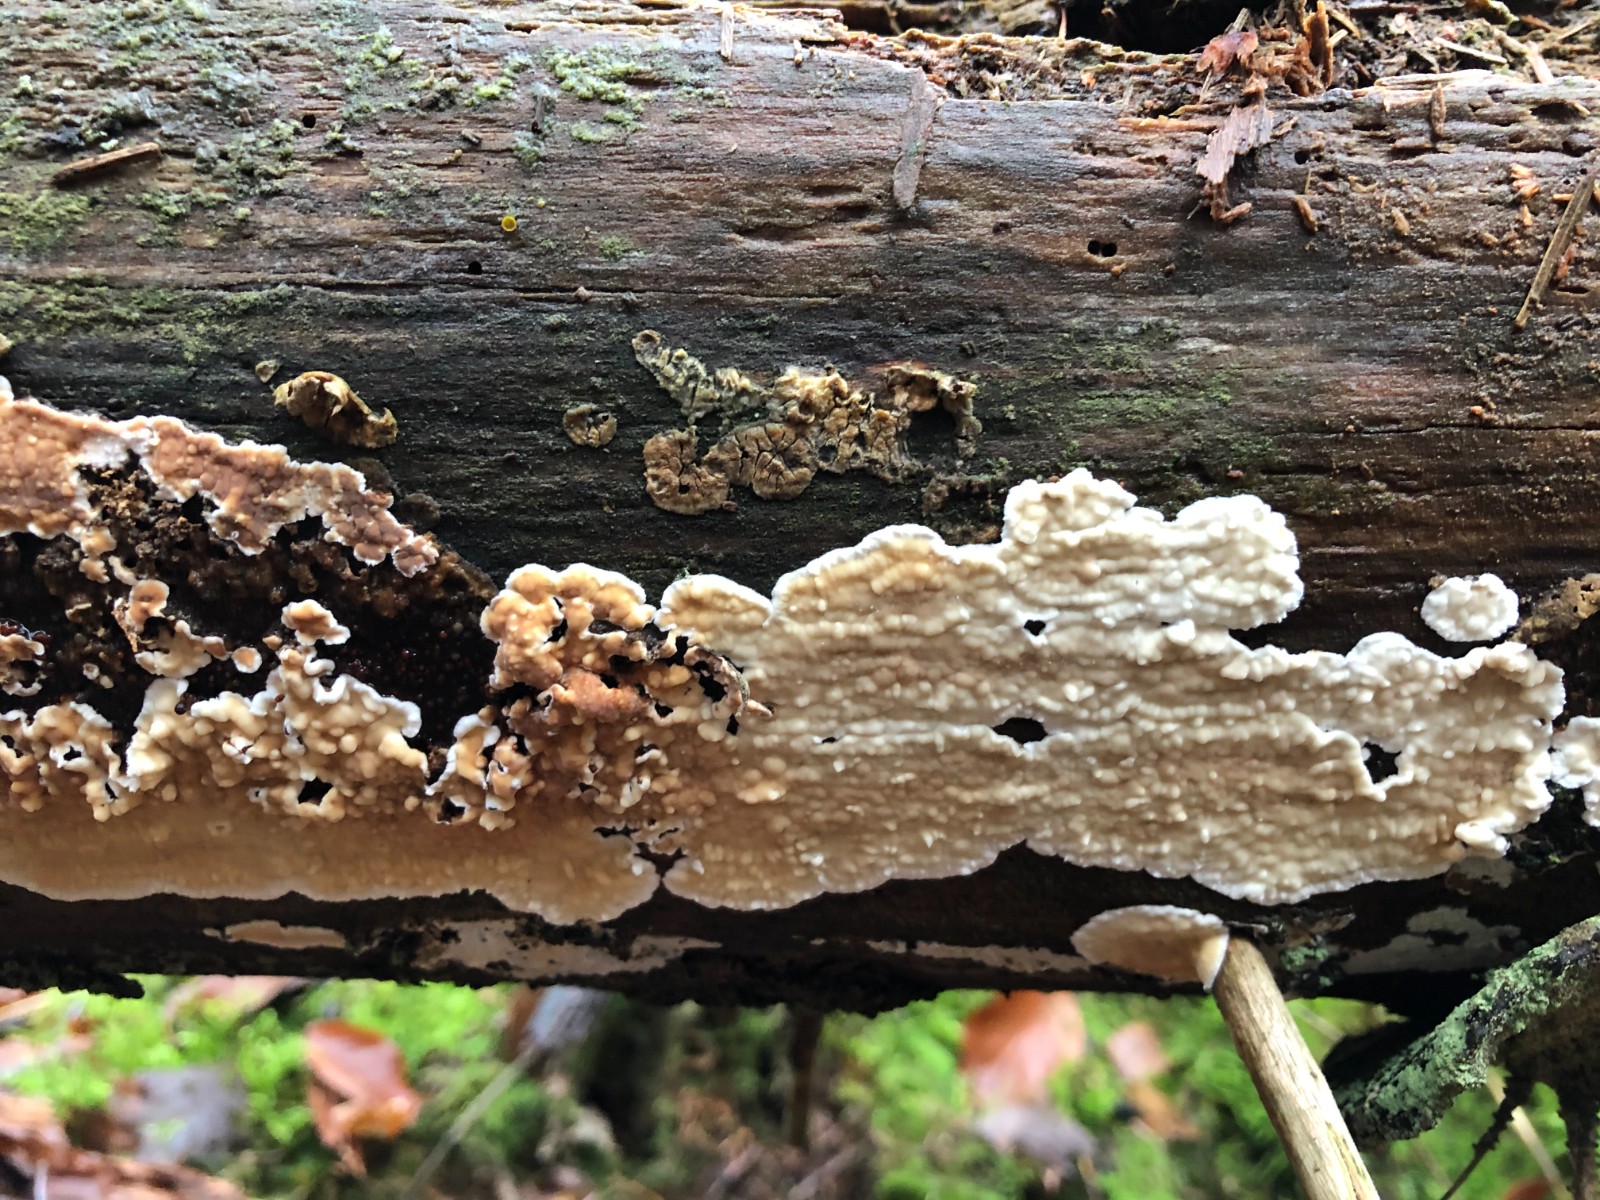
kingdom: Fungi
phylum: Basidiomycota
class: Agaricomycetes
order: Polyporales
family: Dacryobolaceae
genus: Dacryobolus
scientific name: Dacryobolus karstenii
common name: glat vulkanskorpe
